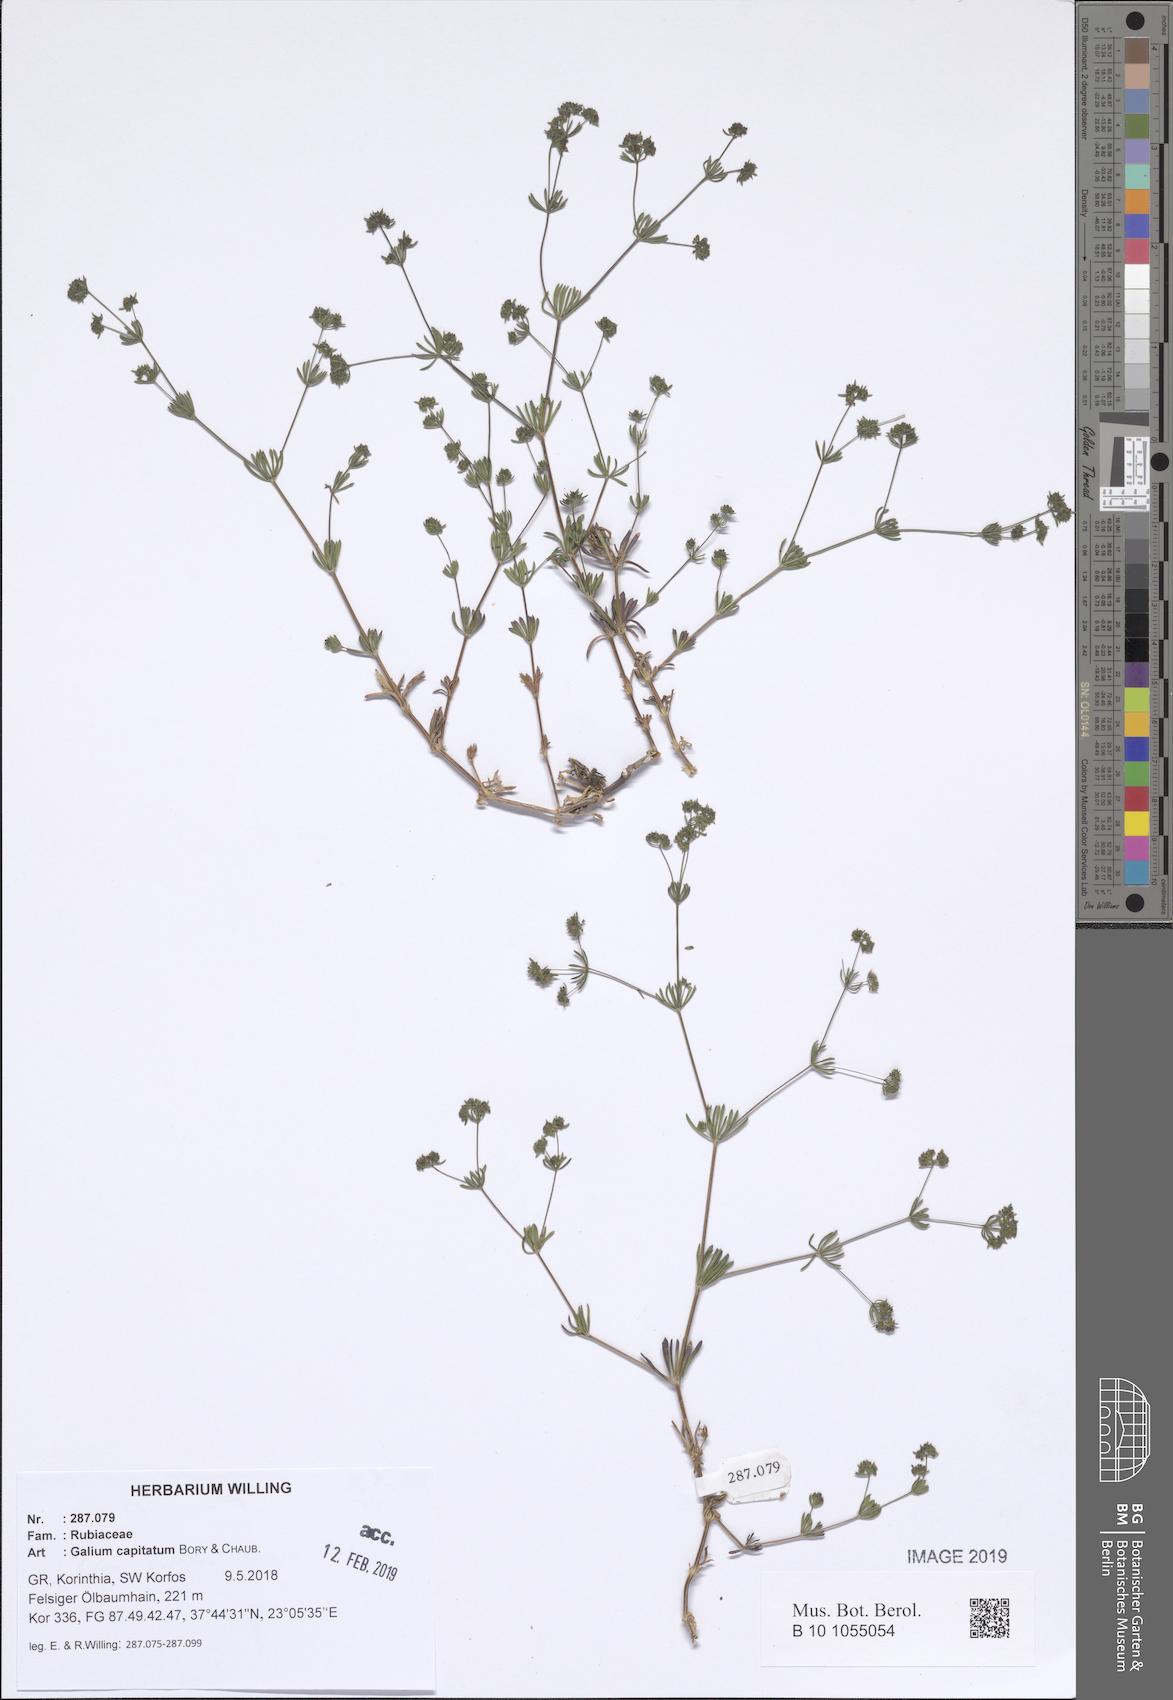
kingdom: Plantae
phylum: Tracheophyta
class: Magnoliopsida
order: Gentianales
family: Rubiaceae
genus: Galium
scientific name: Galium capitatum
